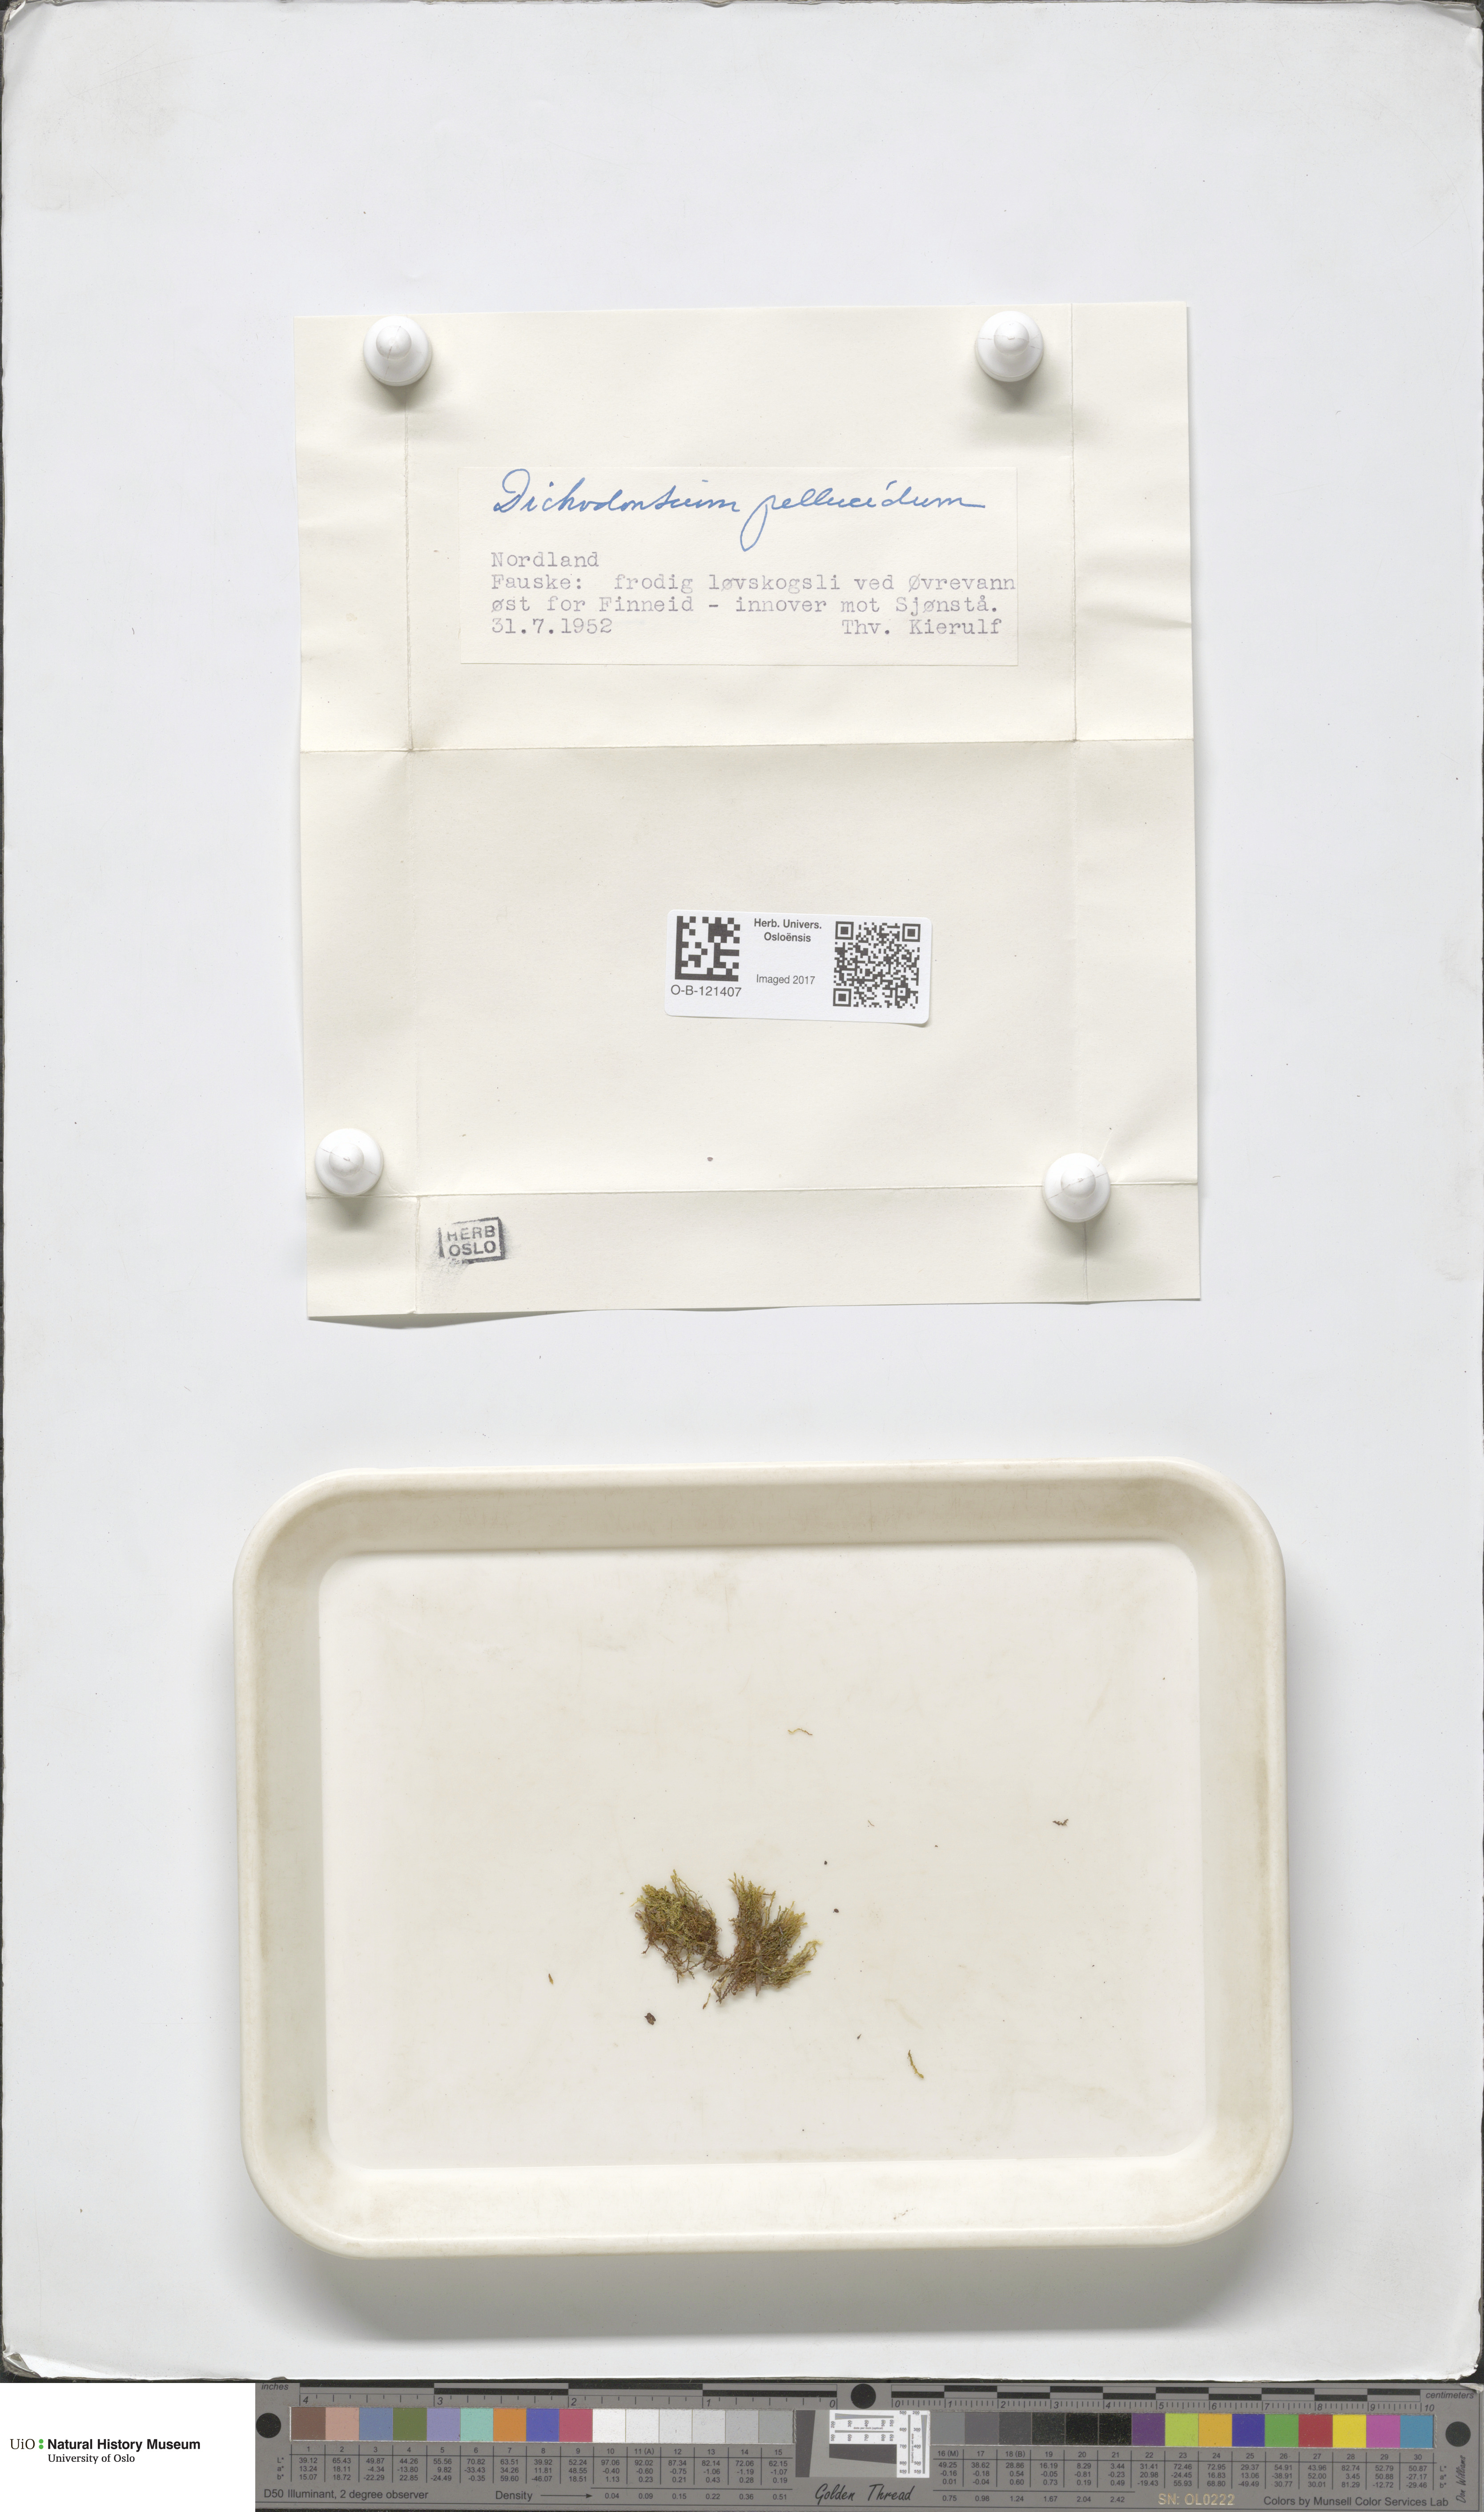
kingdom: Plantae
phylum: Bryophyta
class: Bryopsida
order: Dicranales
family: Aongstroemiaceae
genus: Dichodontium
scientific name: Dichodontium pellucidum
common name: Transparent fork moss
